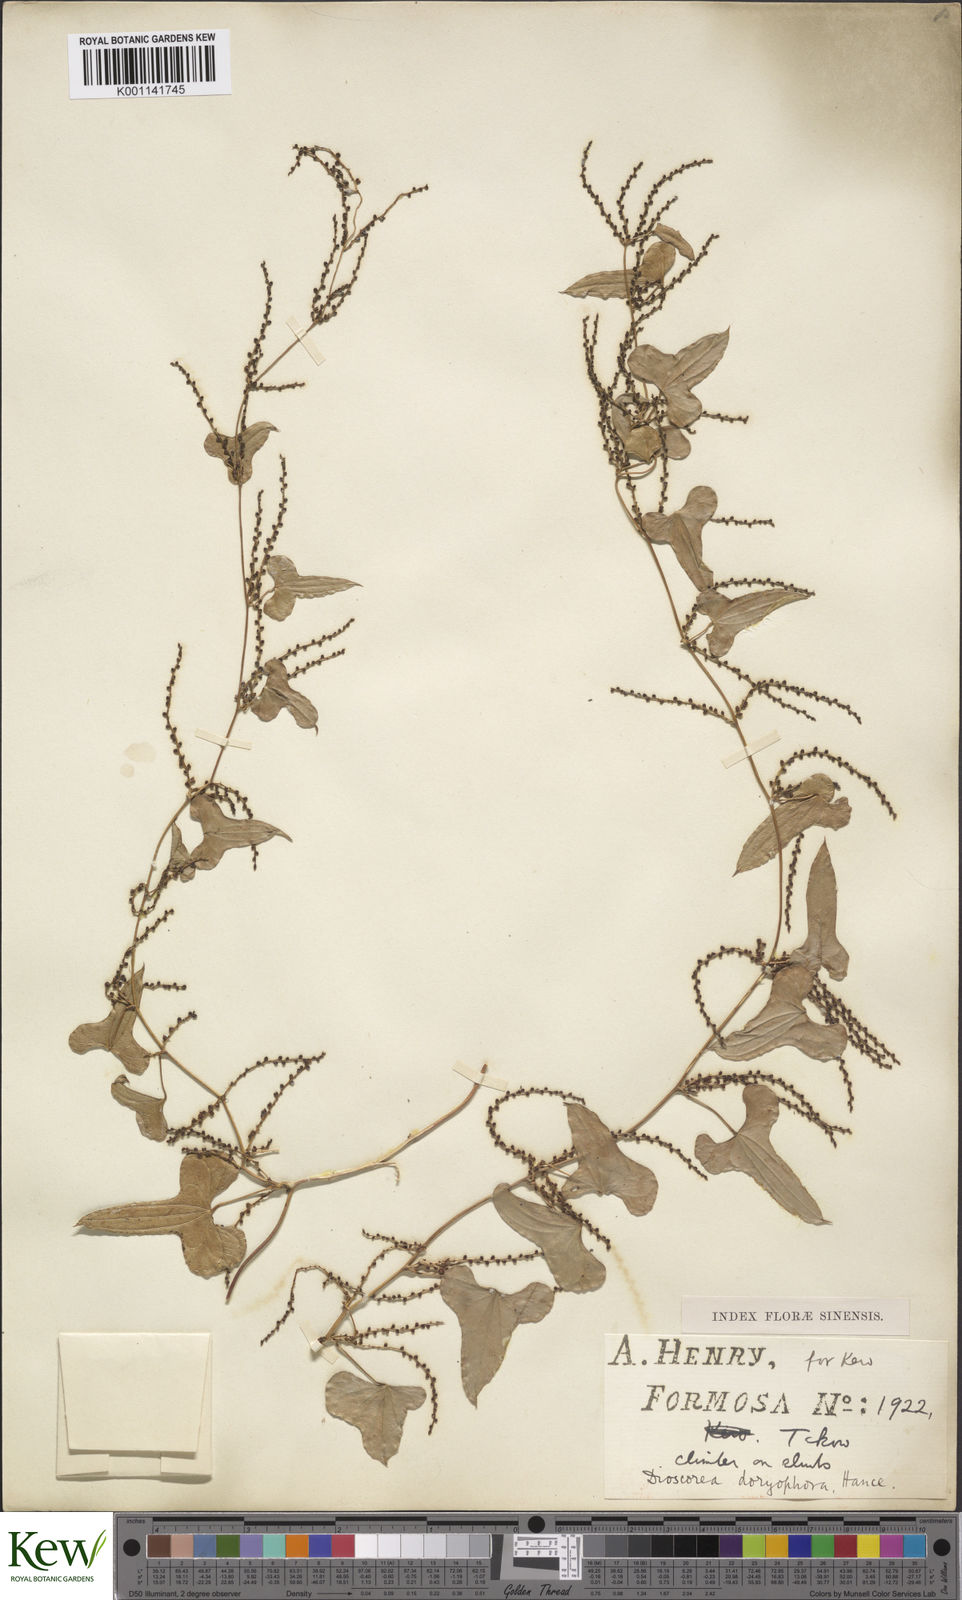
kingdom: Plantae
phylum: Tracheophyta
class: Liliopsida
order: Dioscoreales
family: Dioscoreaceae
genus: Dioscorea
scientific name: Dioscorea polystachya
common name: Chinese yam
